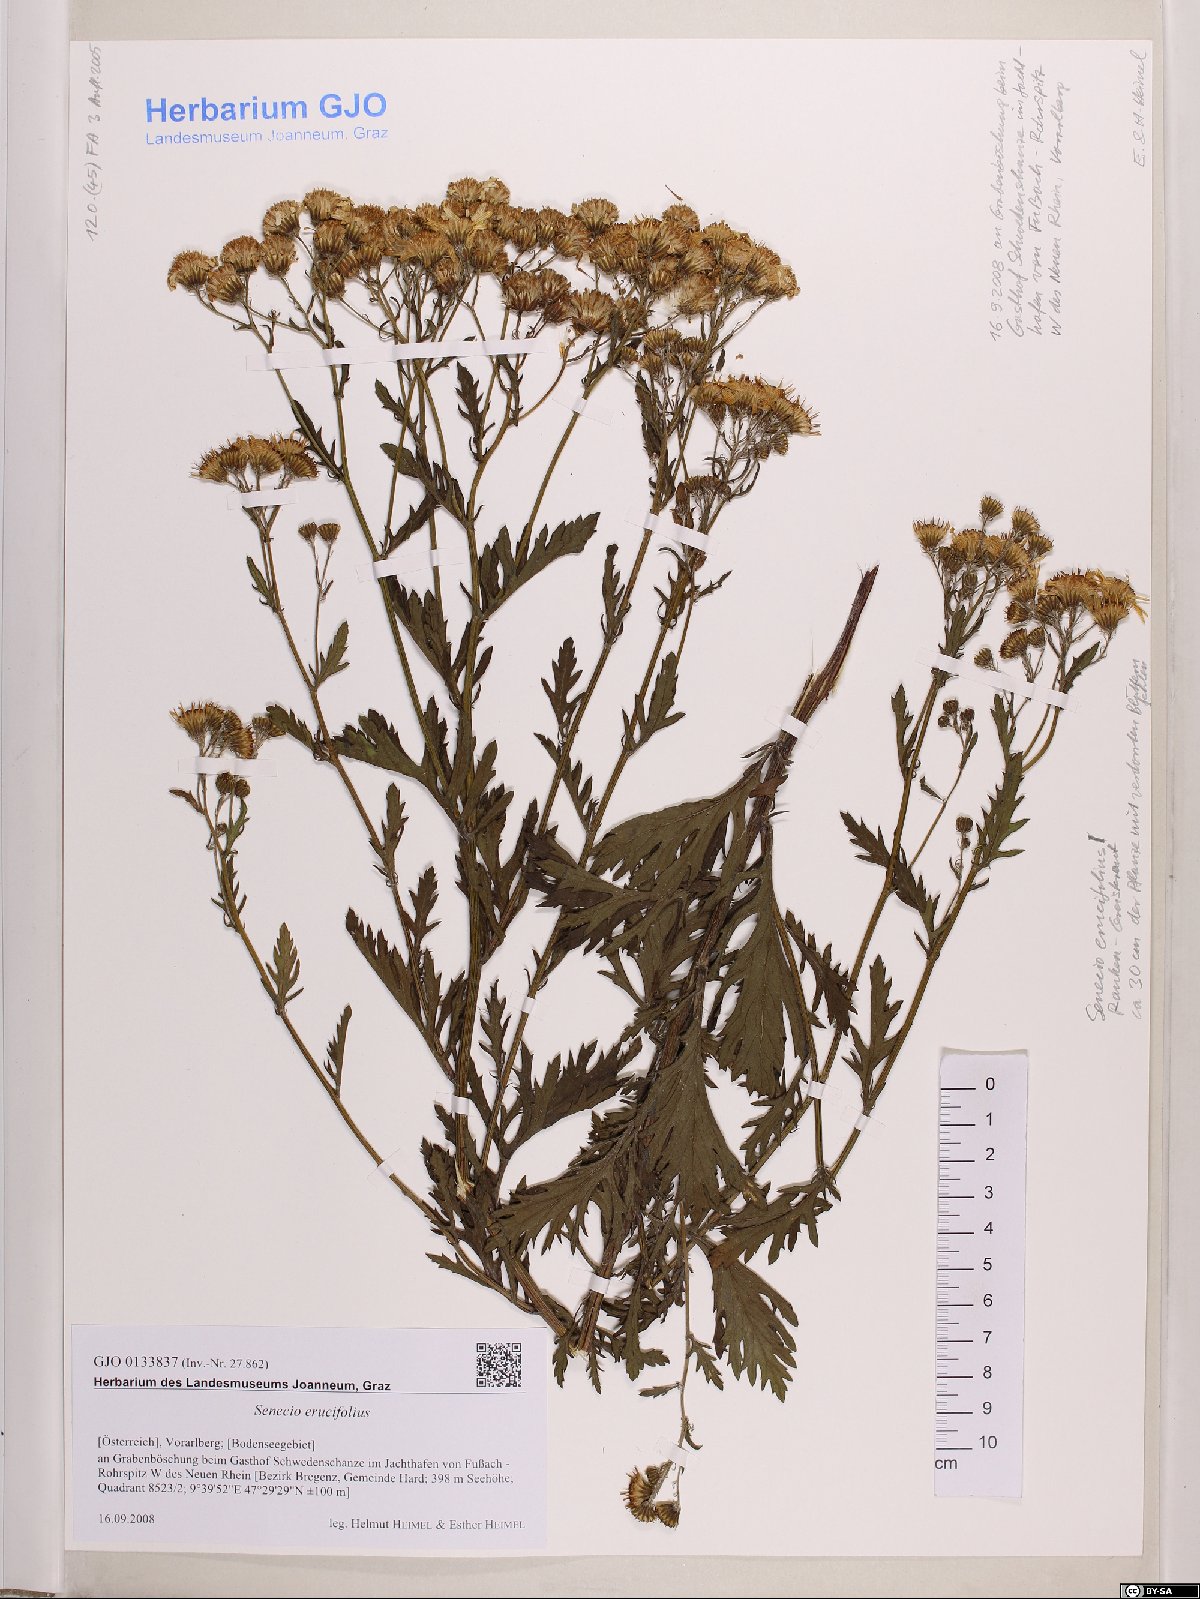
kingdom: Plantae
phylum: Tracheophyta
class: Magnoliopsida
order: Asterales
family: Asteraceae
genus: Jacobaea
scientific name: Jacobaea erucifolia
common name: Hoary ragwort
